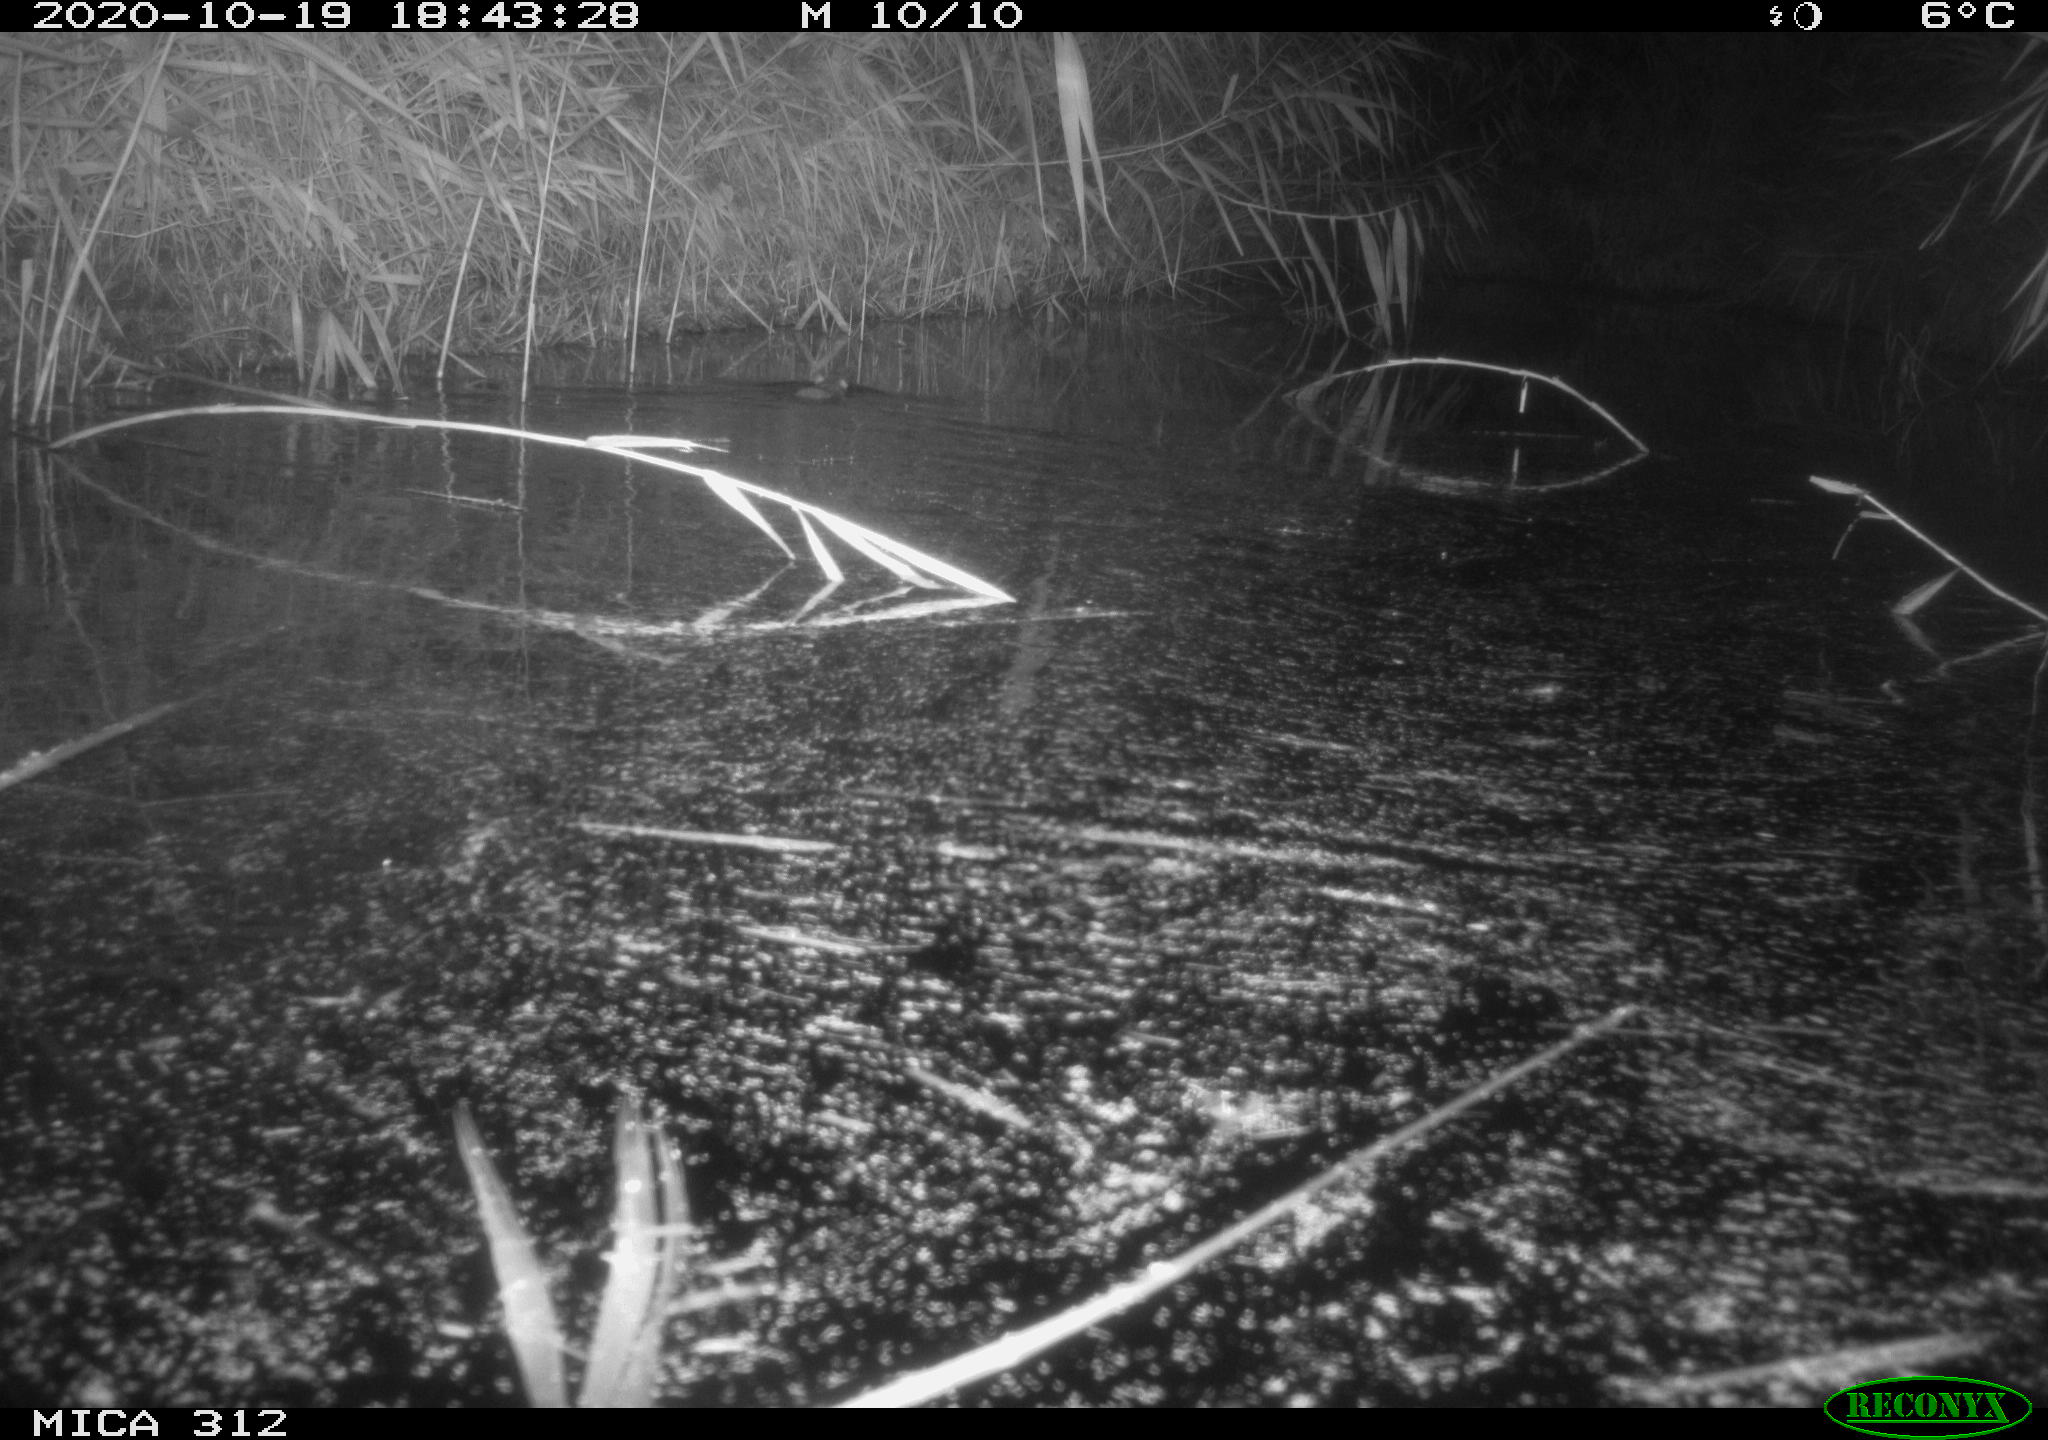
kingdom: Animalia
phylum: Chordata
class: Mammalia
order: Rodentia
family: Muridae
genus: Rattus
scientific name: Rattus norvegicus
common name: Brown rat
